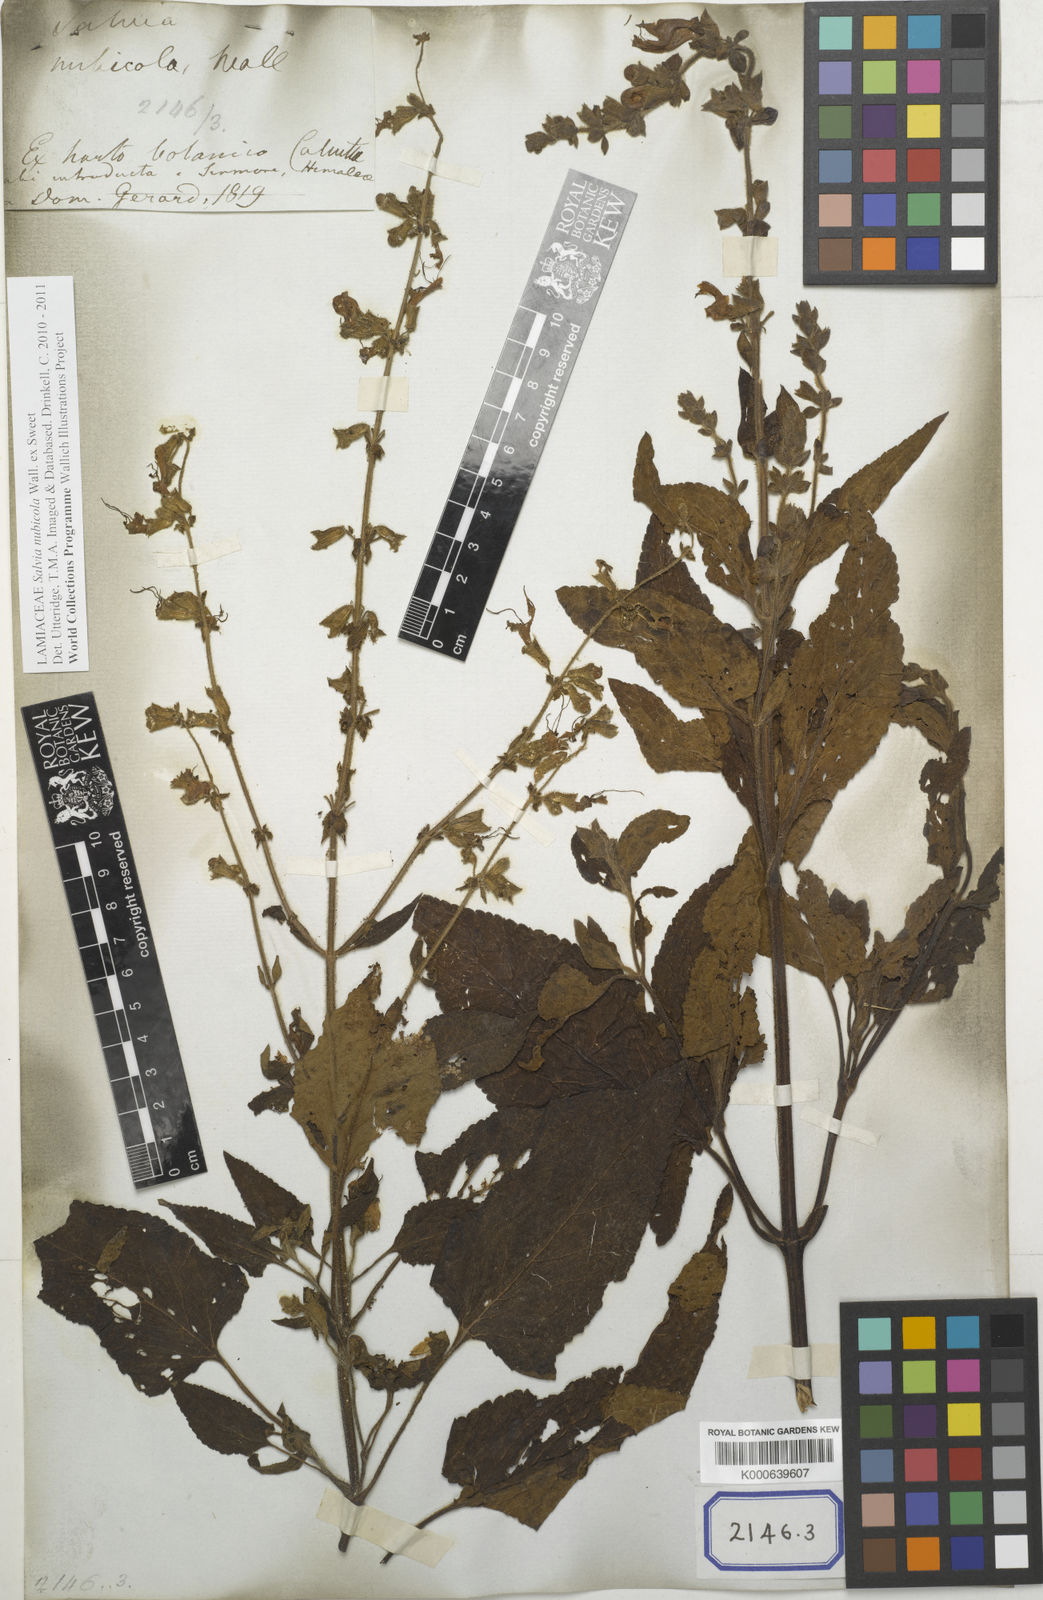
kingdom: Plantae
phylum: Tracheophyta
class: Magnoliopsida
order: Lamiales
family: Lamiaceae
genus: Salvia
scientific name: Salvia nubicola
